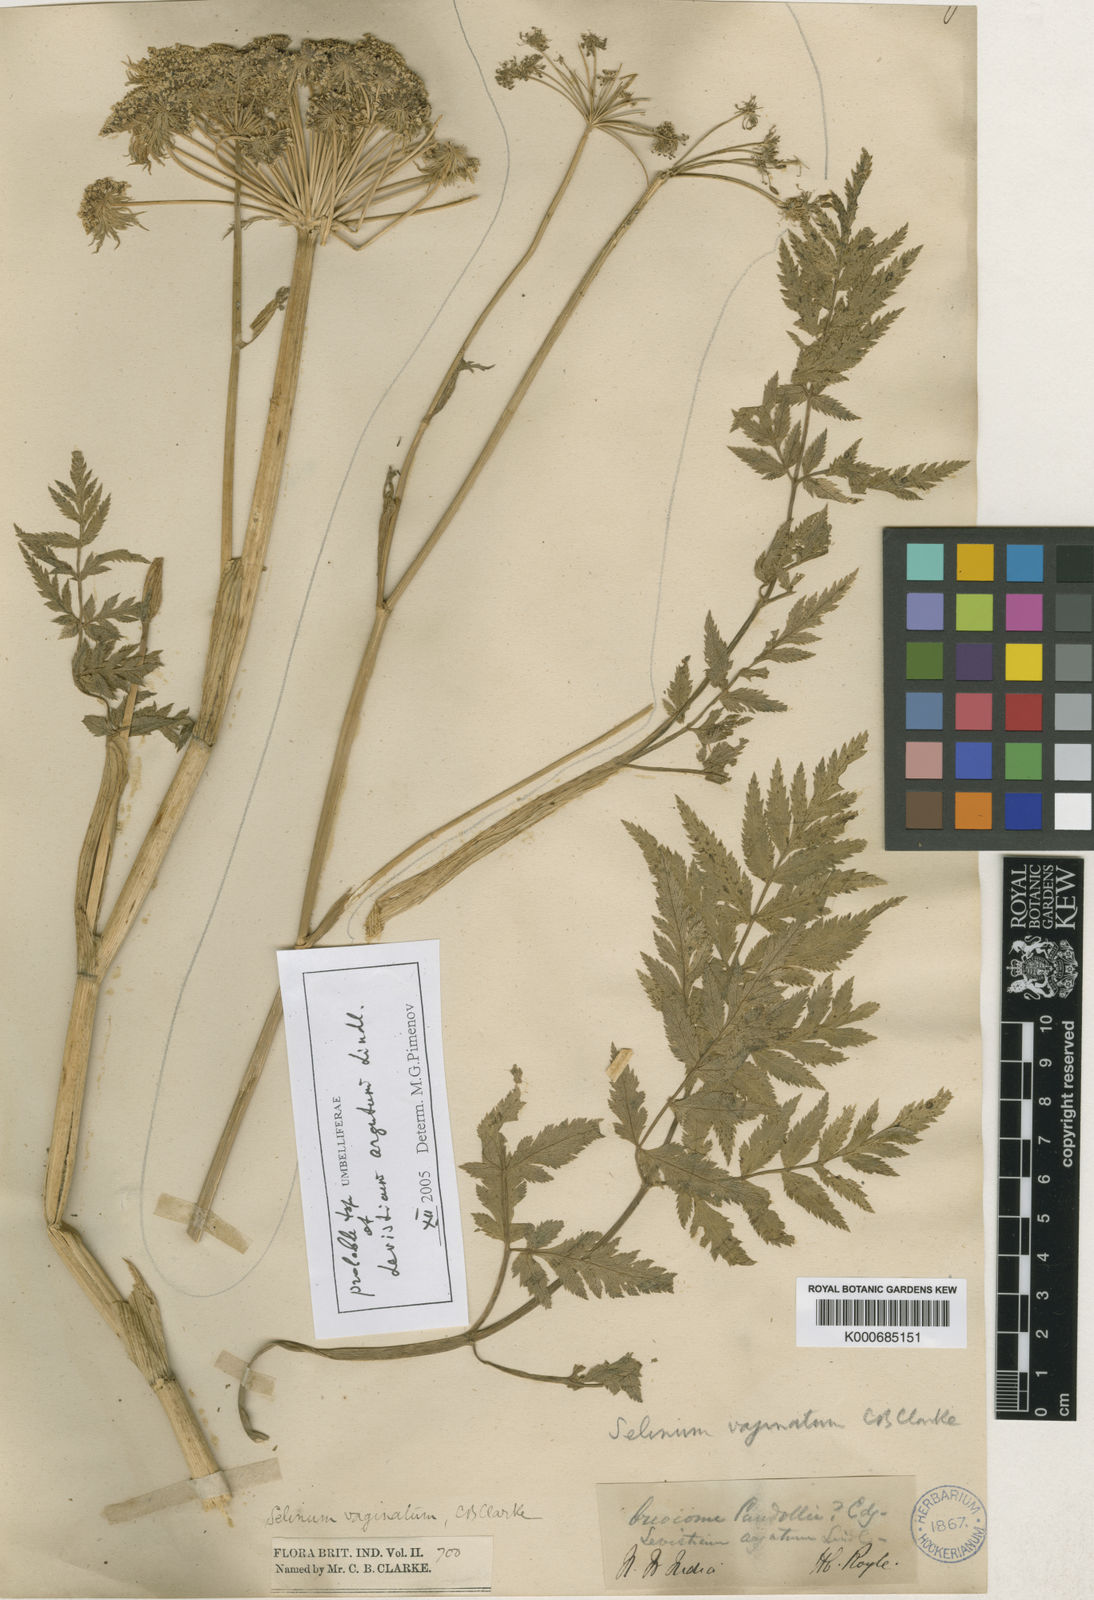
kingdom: Plantae
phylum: Tracheophyta
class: Magnoliopsida
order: Apiales
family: Apiaceae
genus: Selinum
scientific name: Selinum vaginatum
